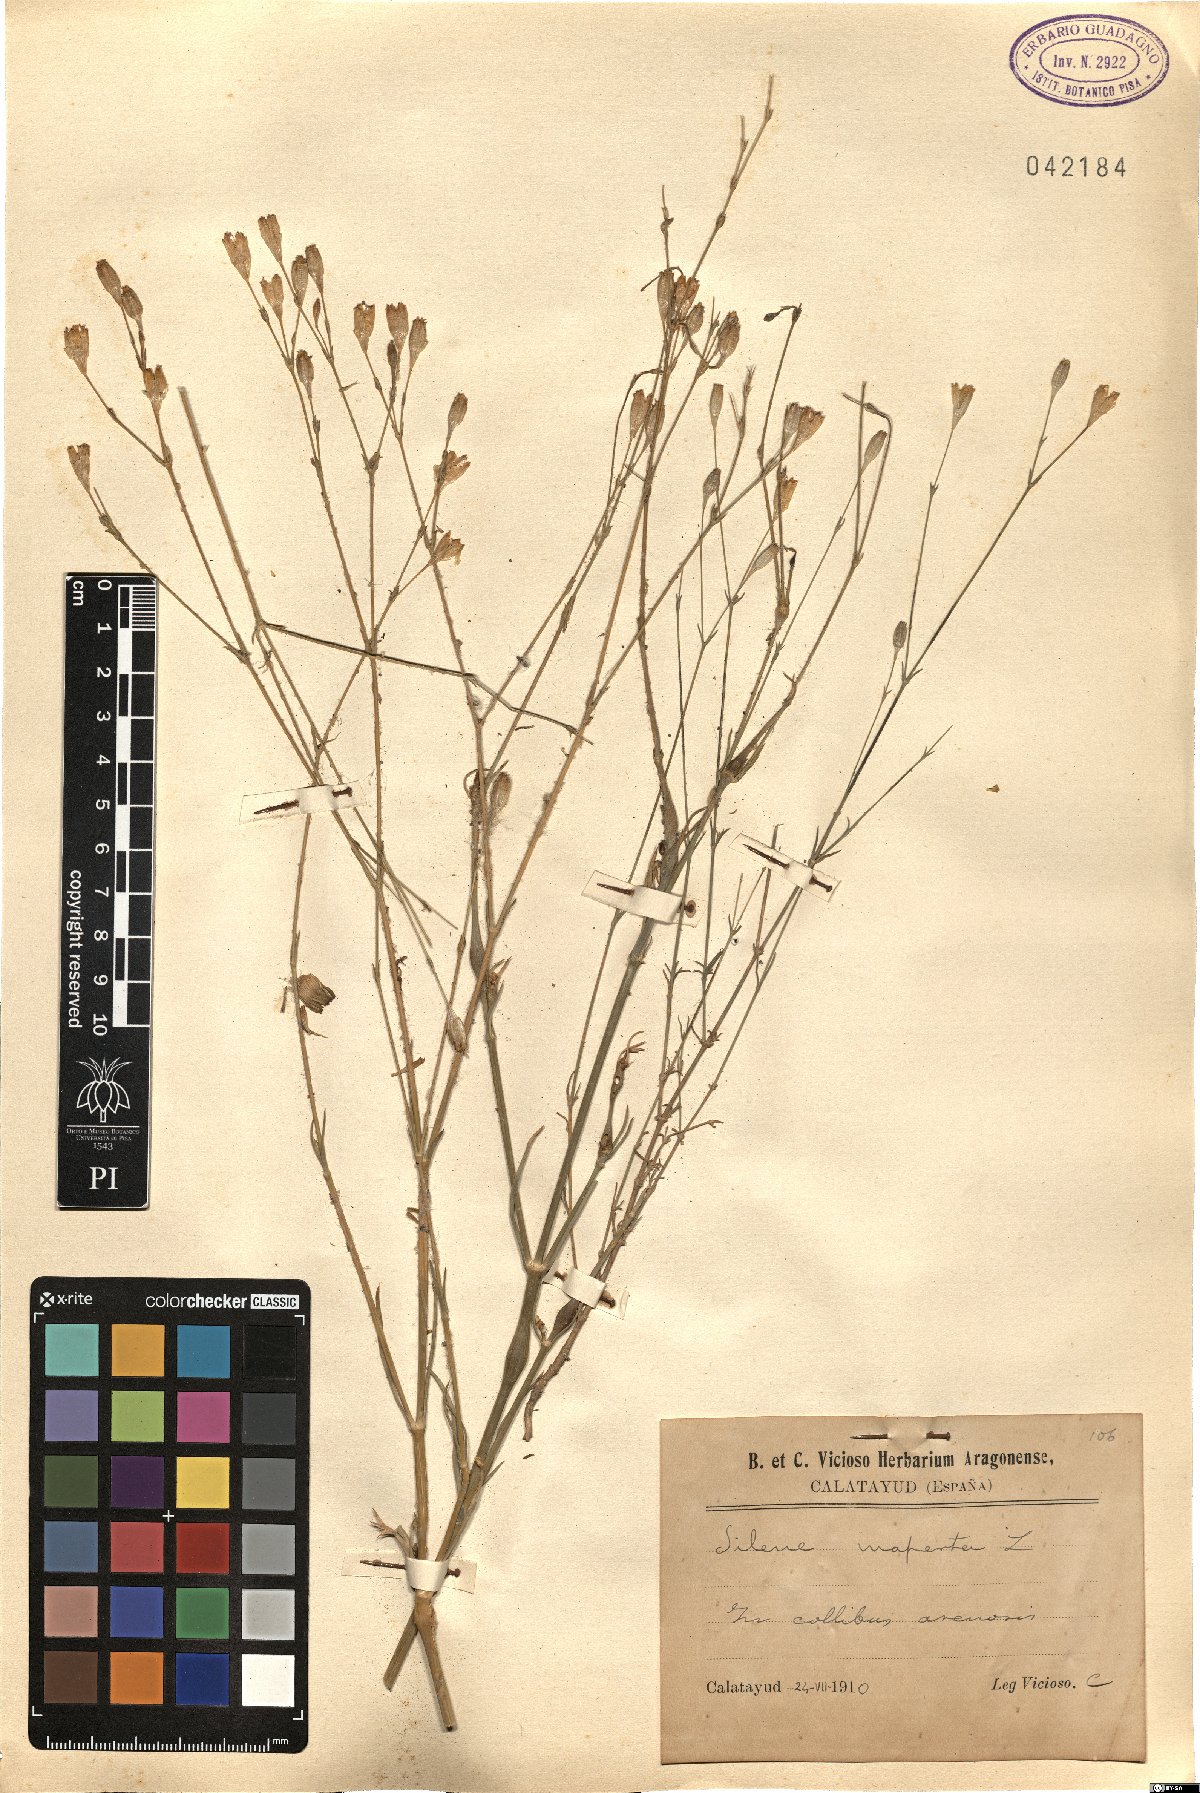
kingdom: Plantae
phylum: Tracheophyta
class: Magnoliopsida
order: Caryophyllales
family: Caryophyllaceae
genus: Silene
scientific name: Silene inaperta
